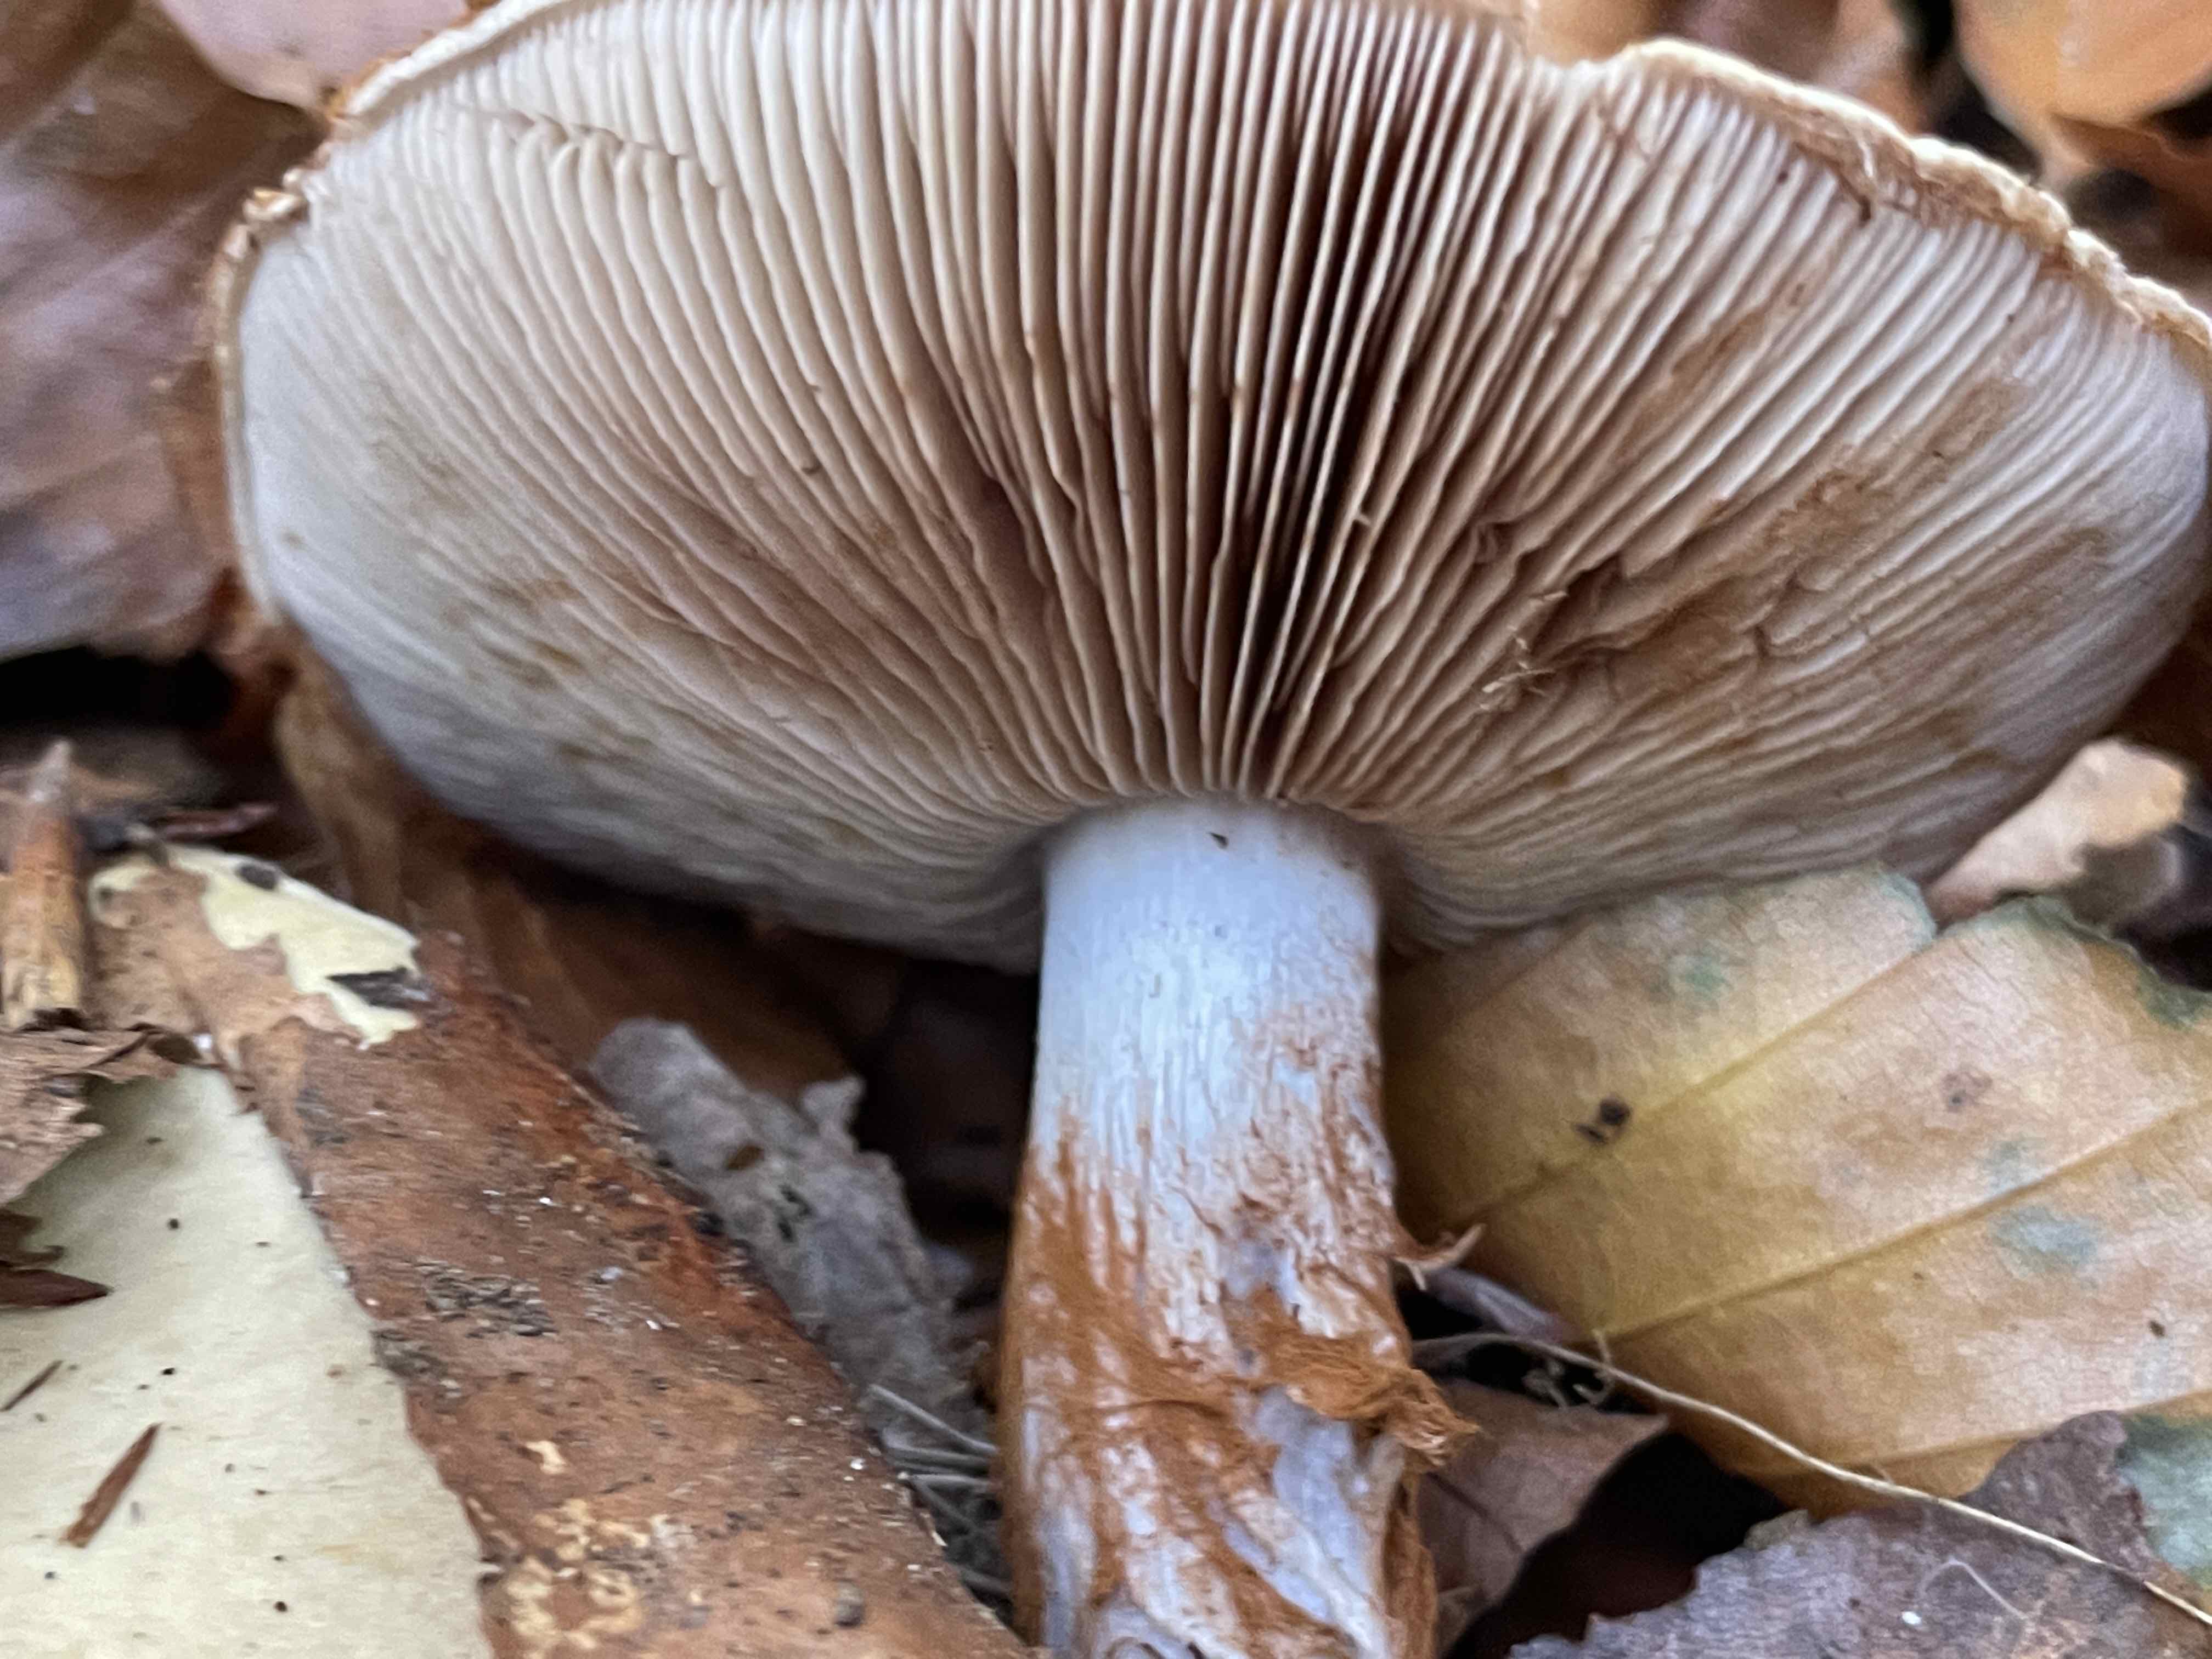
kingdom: Fungi
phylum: Basidiomycota
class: Agaricomycetes
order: Agaricales
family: Cortinariaceae
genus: Cortinarius
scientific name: Cortinarius foetens
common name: stribet slørhat
